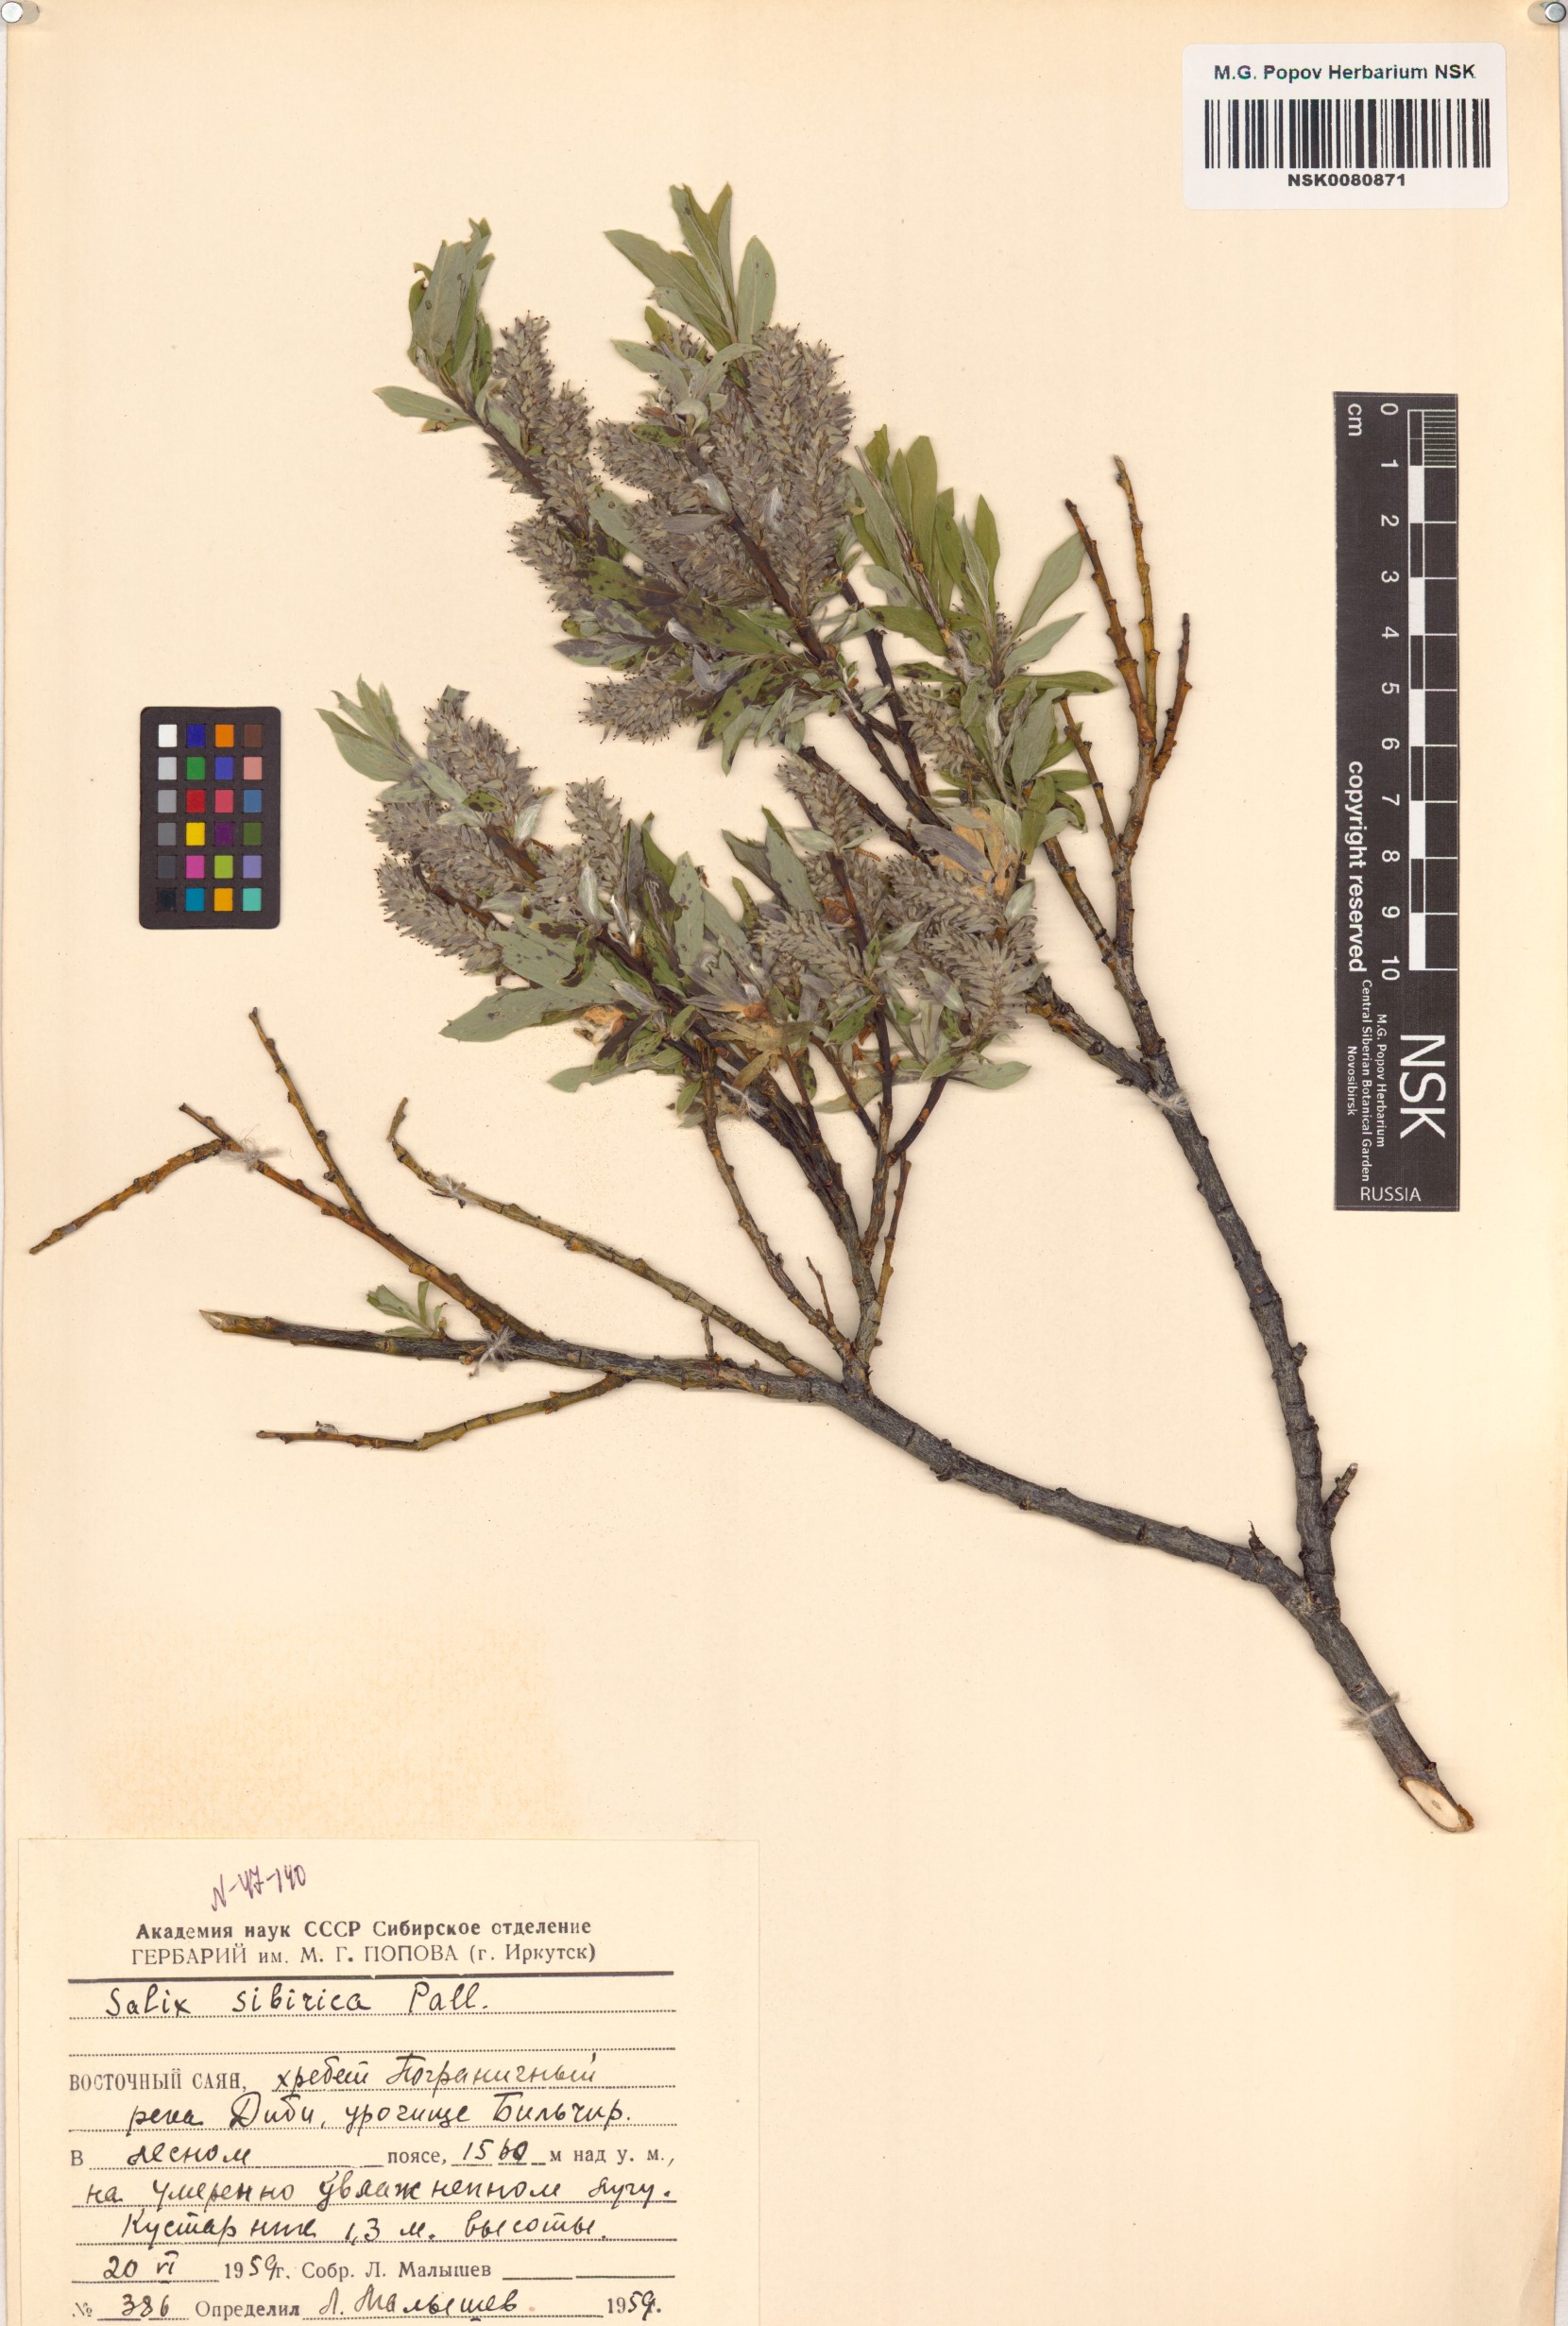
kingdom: Plantae
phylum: Tracheophyta
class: Magnoliopsida
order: Malpighiales
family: Salicaceae
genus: Salix
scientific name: Salix rosmarinifolia
